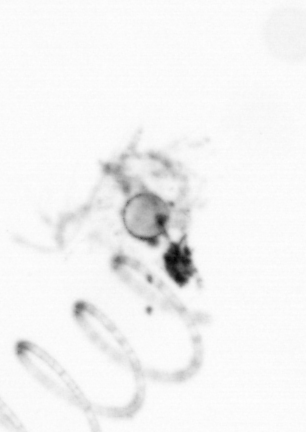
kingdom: Chromista
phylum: Ochrophyta
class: Bacillariophyceae
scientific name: Bacillariophyceae
